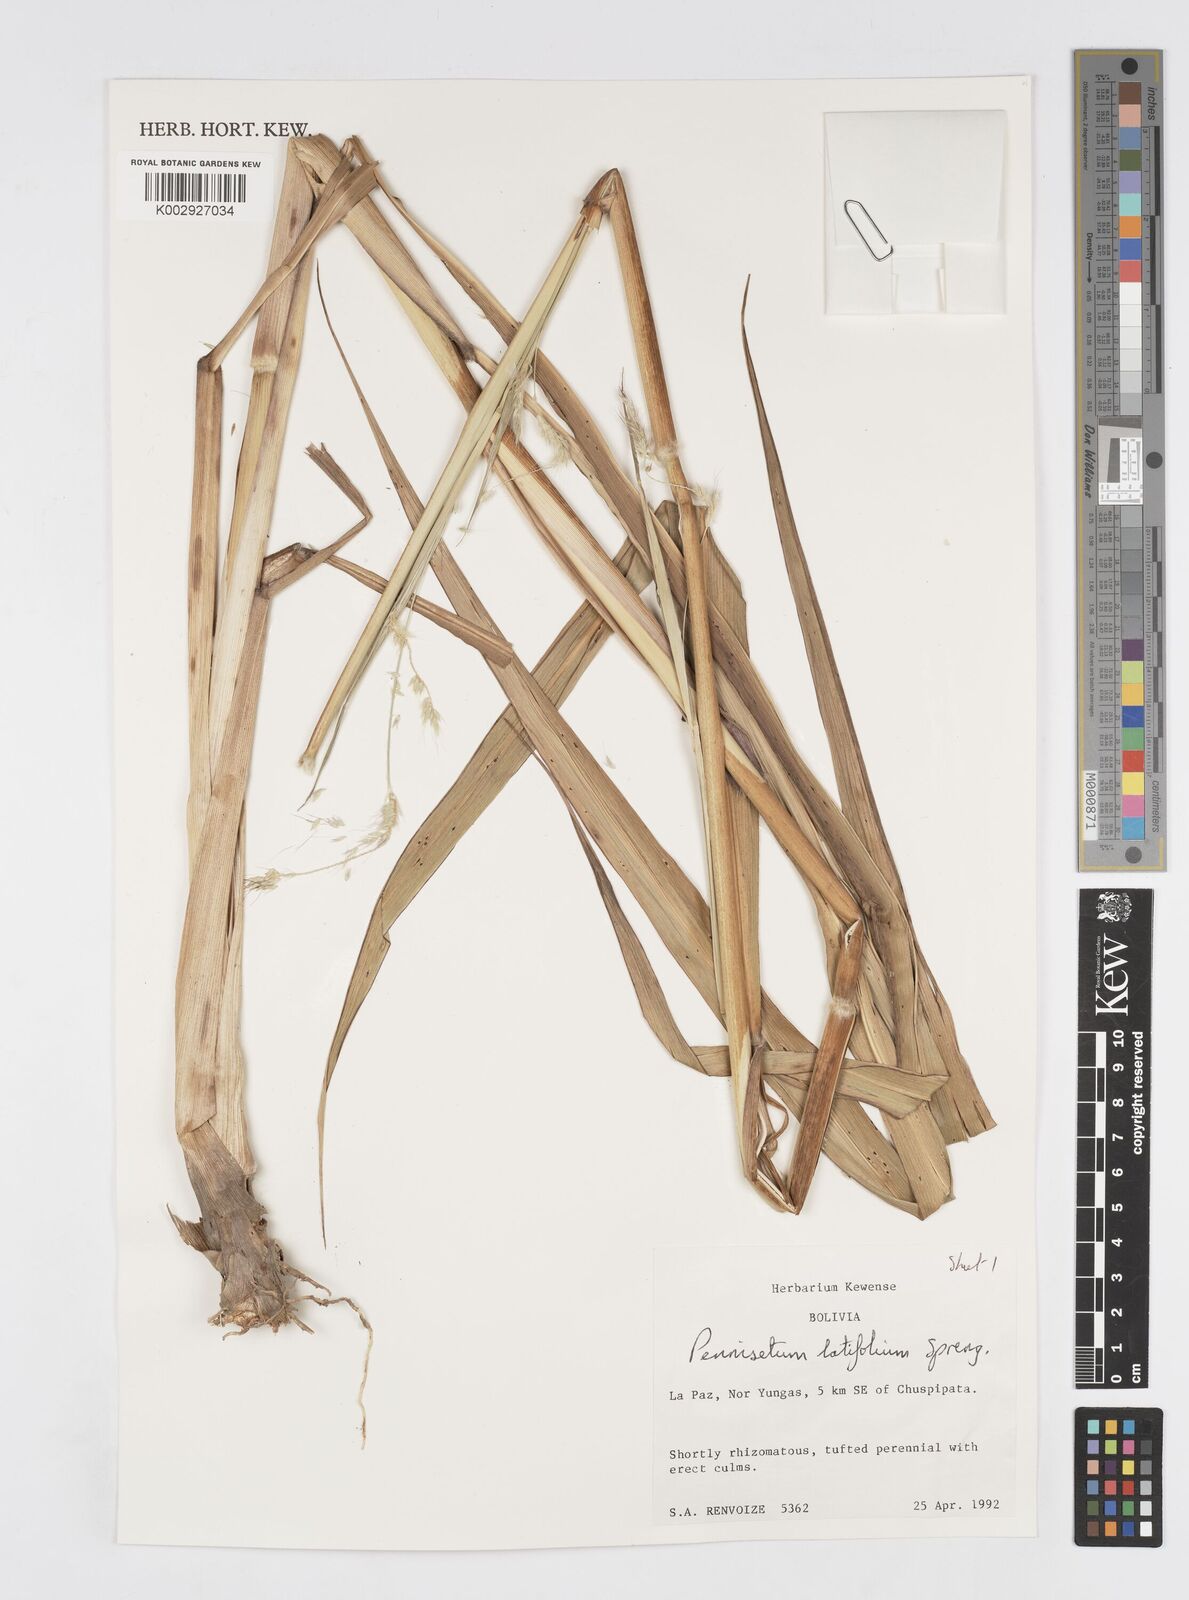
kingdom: Plantae
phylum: Tracheophyta
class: Liliopsida
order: Poales
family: Poaceae
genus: Cenchrus
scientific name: Cenchrus latifolius
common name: Sandbur
